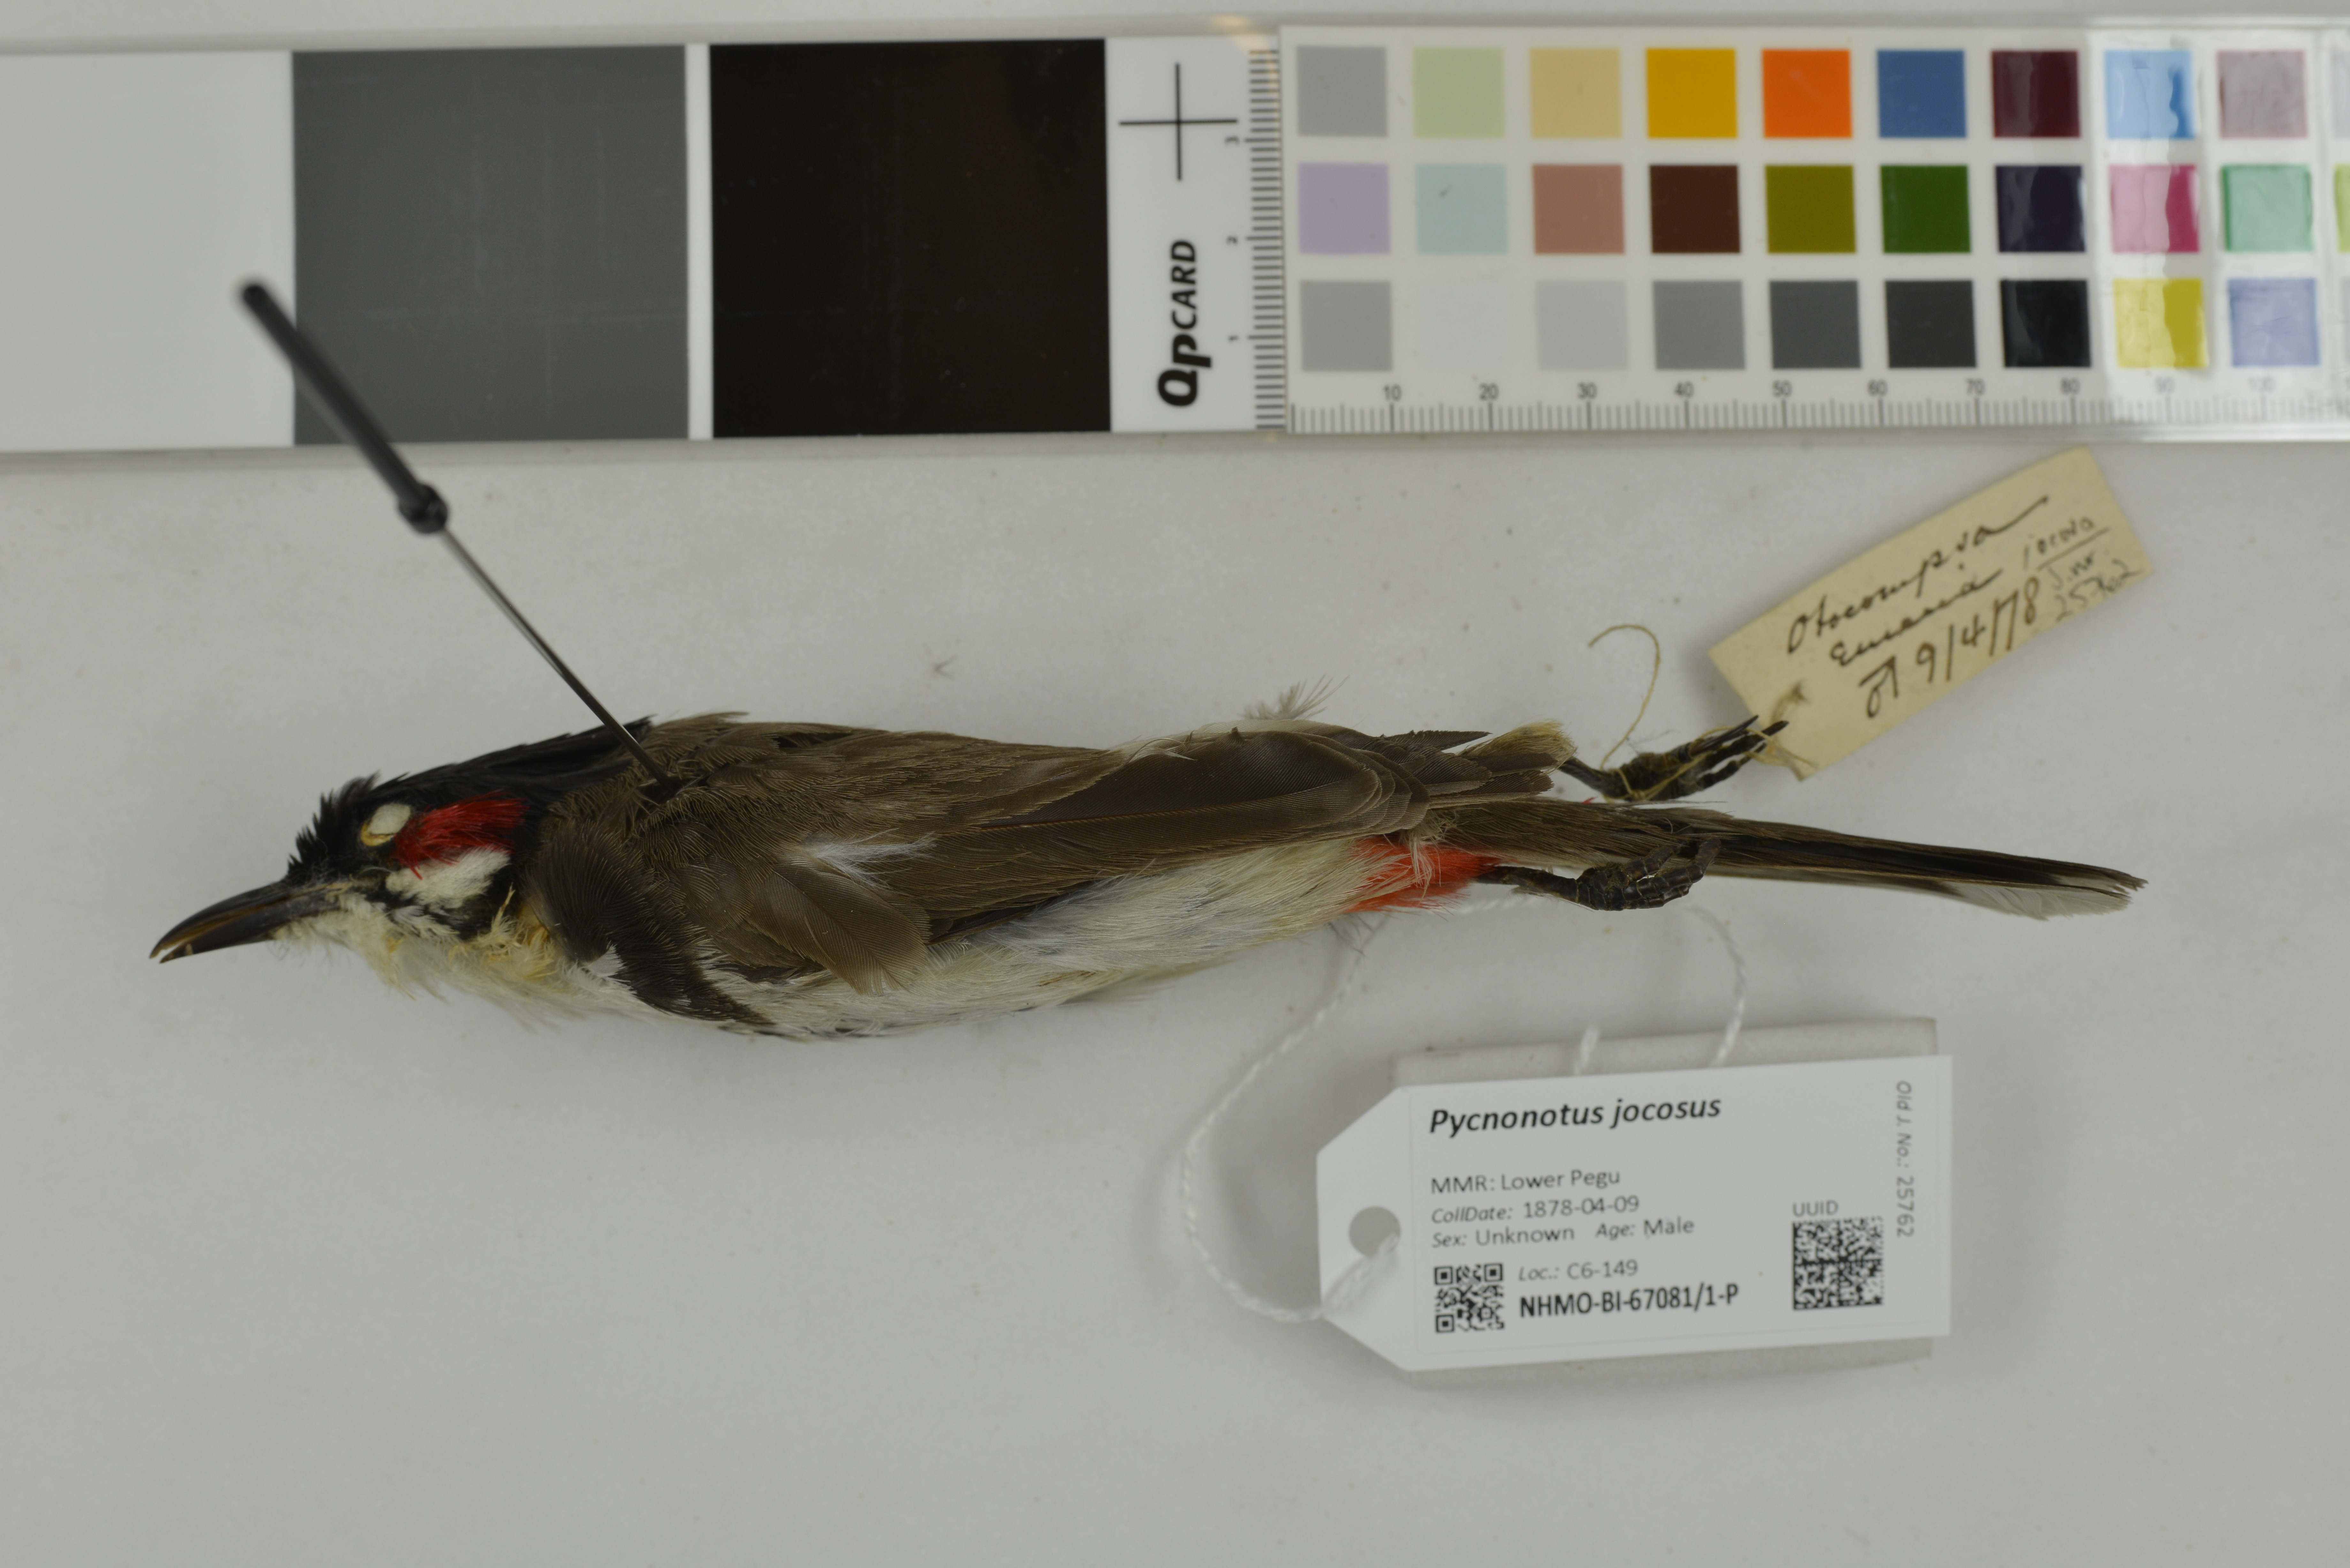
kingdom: Animalia
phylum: Chordata
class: Aves
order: Passeriformes
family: Pycnonotidae
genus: Pycnonotus
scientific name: Pycnonotus jocosus
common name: Red-whiskered bulbul
